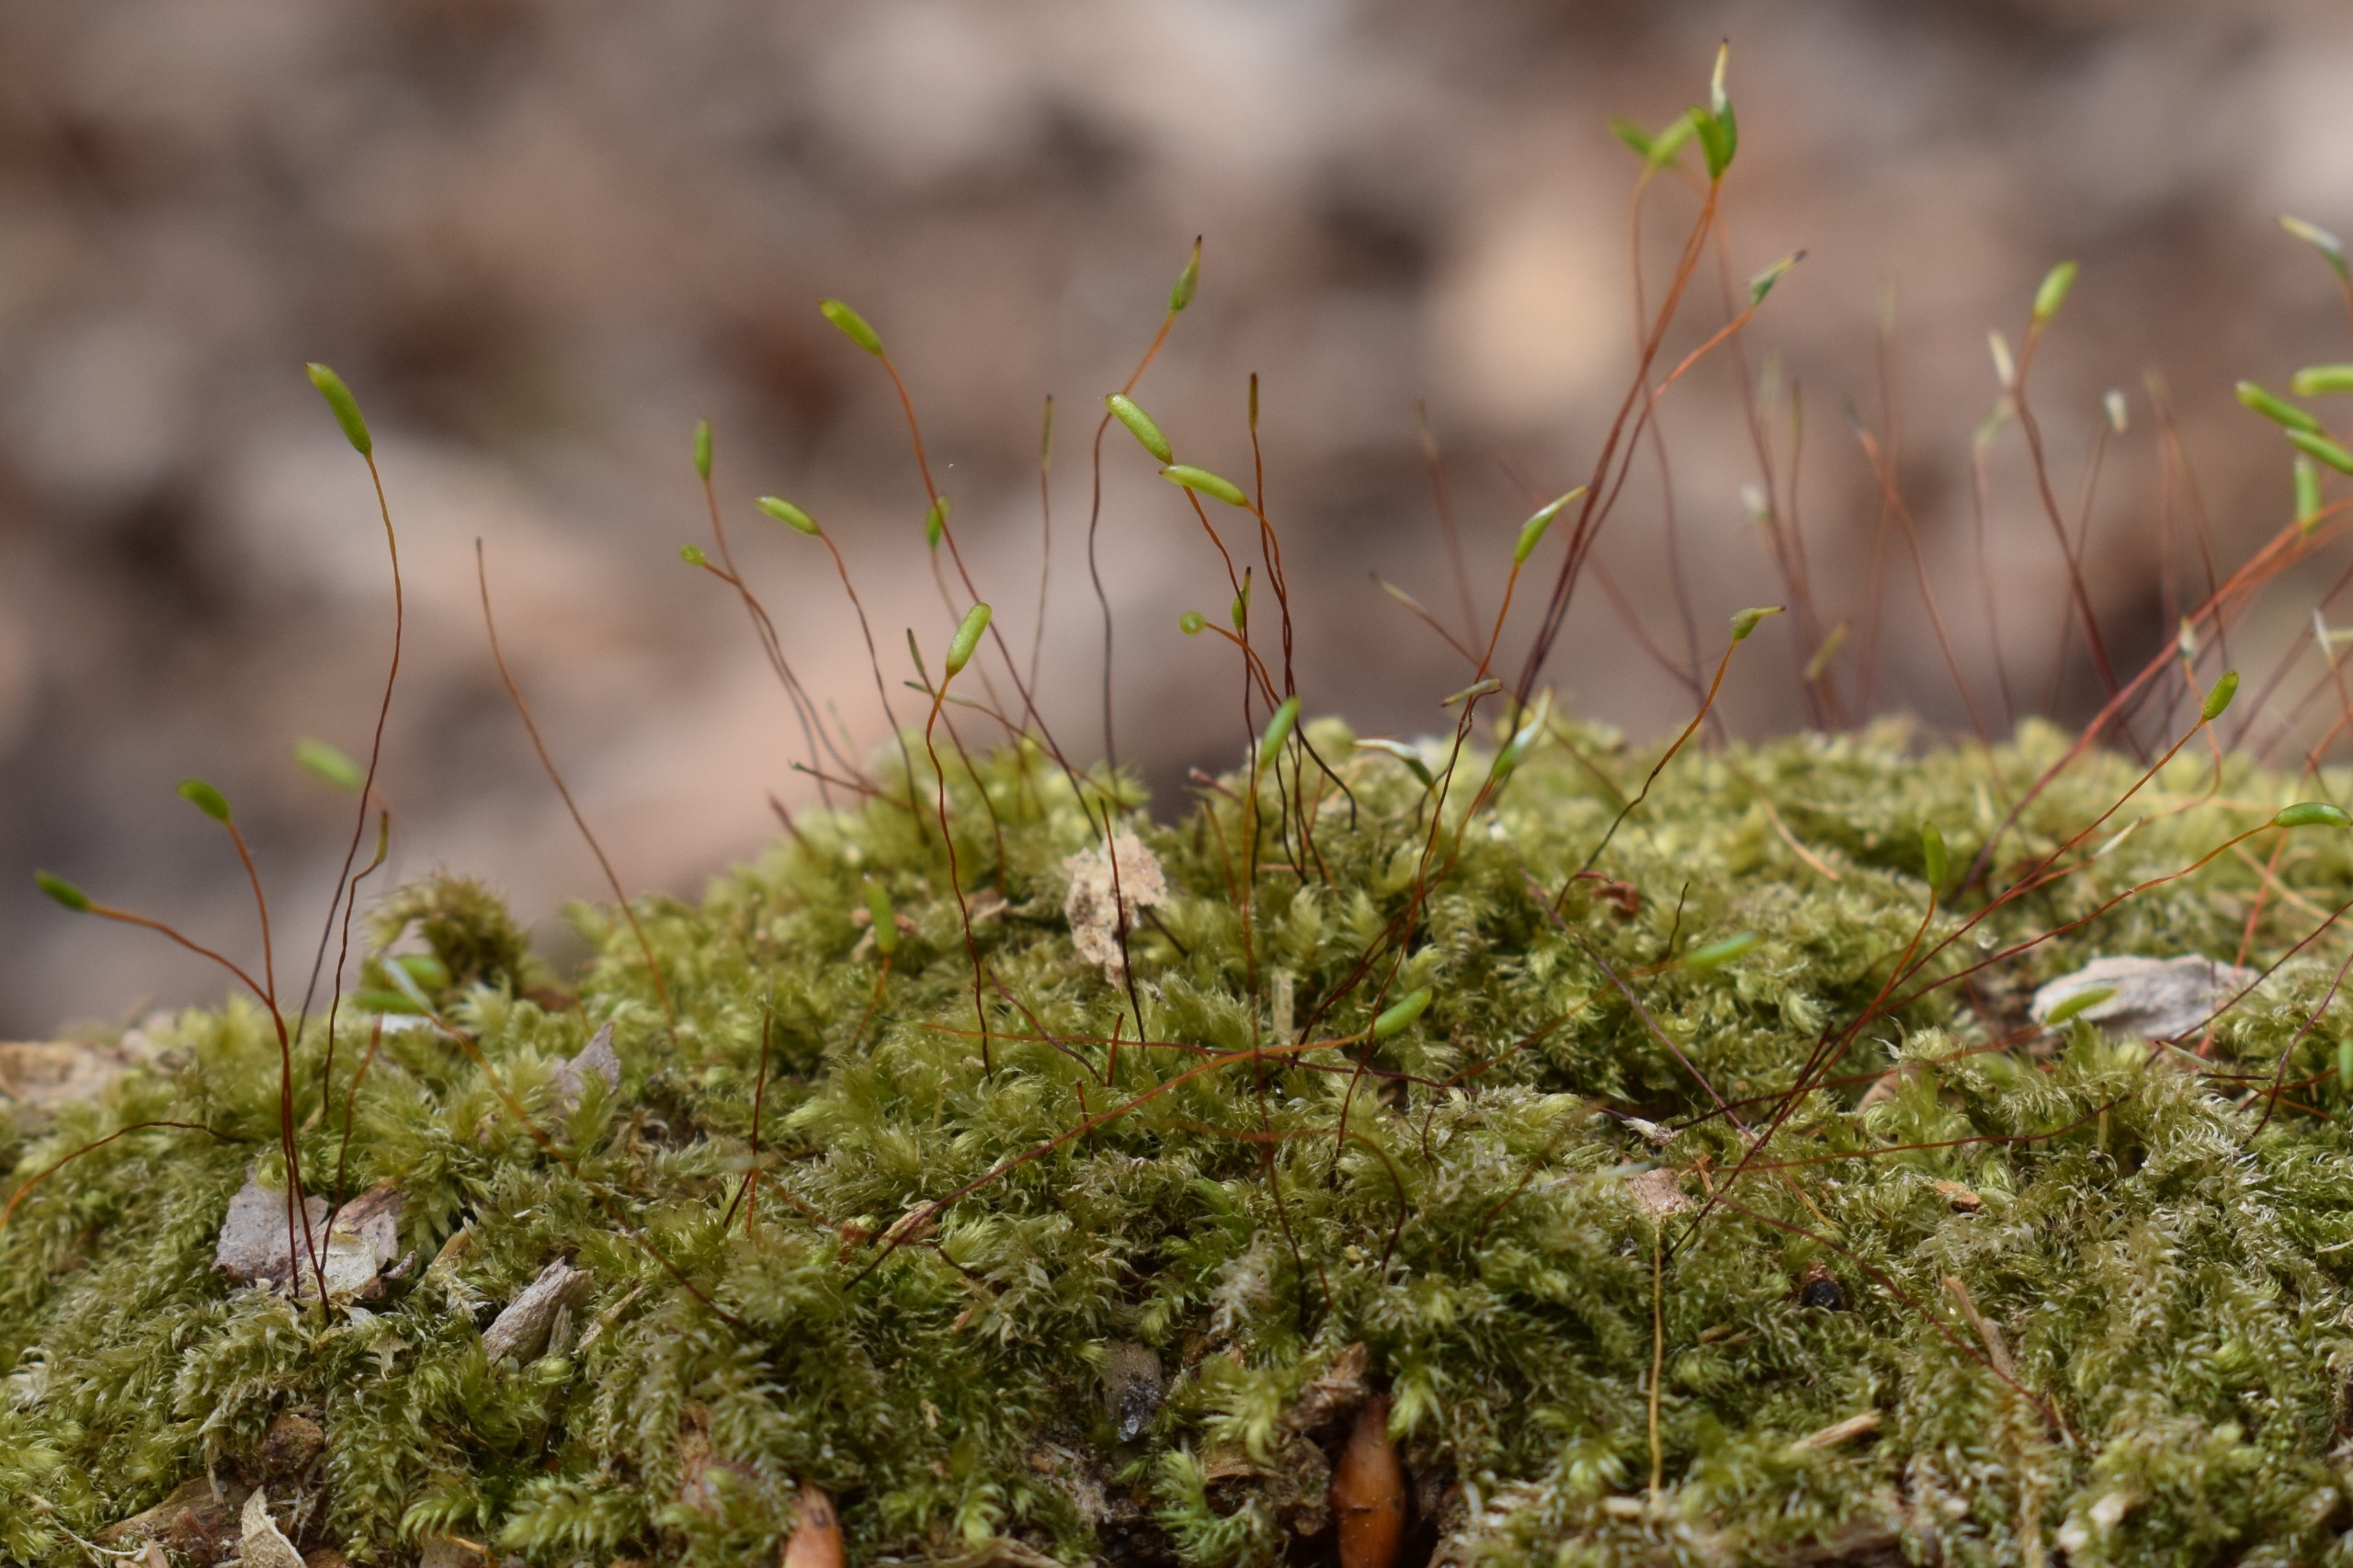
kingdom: Plantae
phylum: Bryophyta
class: Bryopsida
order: Hypnales
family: Plagiotheciaceae
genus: Herzogiella
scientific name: Herzogiella seligeri
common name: Stub-pølsekapsel
